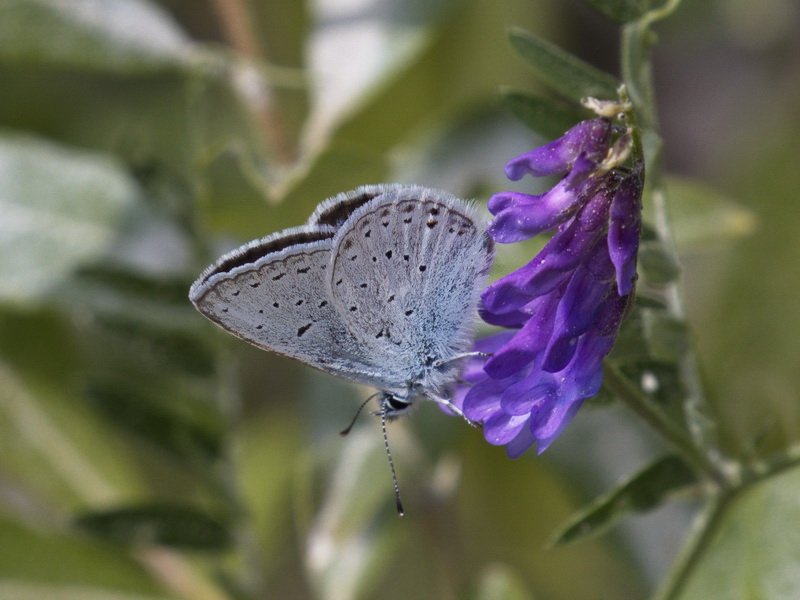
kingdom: Animalia
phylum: Arthropoda
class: Insecta
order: Lepidoptera
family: Lycaenidae
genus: Plebejus
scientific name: Plebejus saepiolus
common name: Greenish Blue
